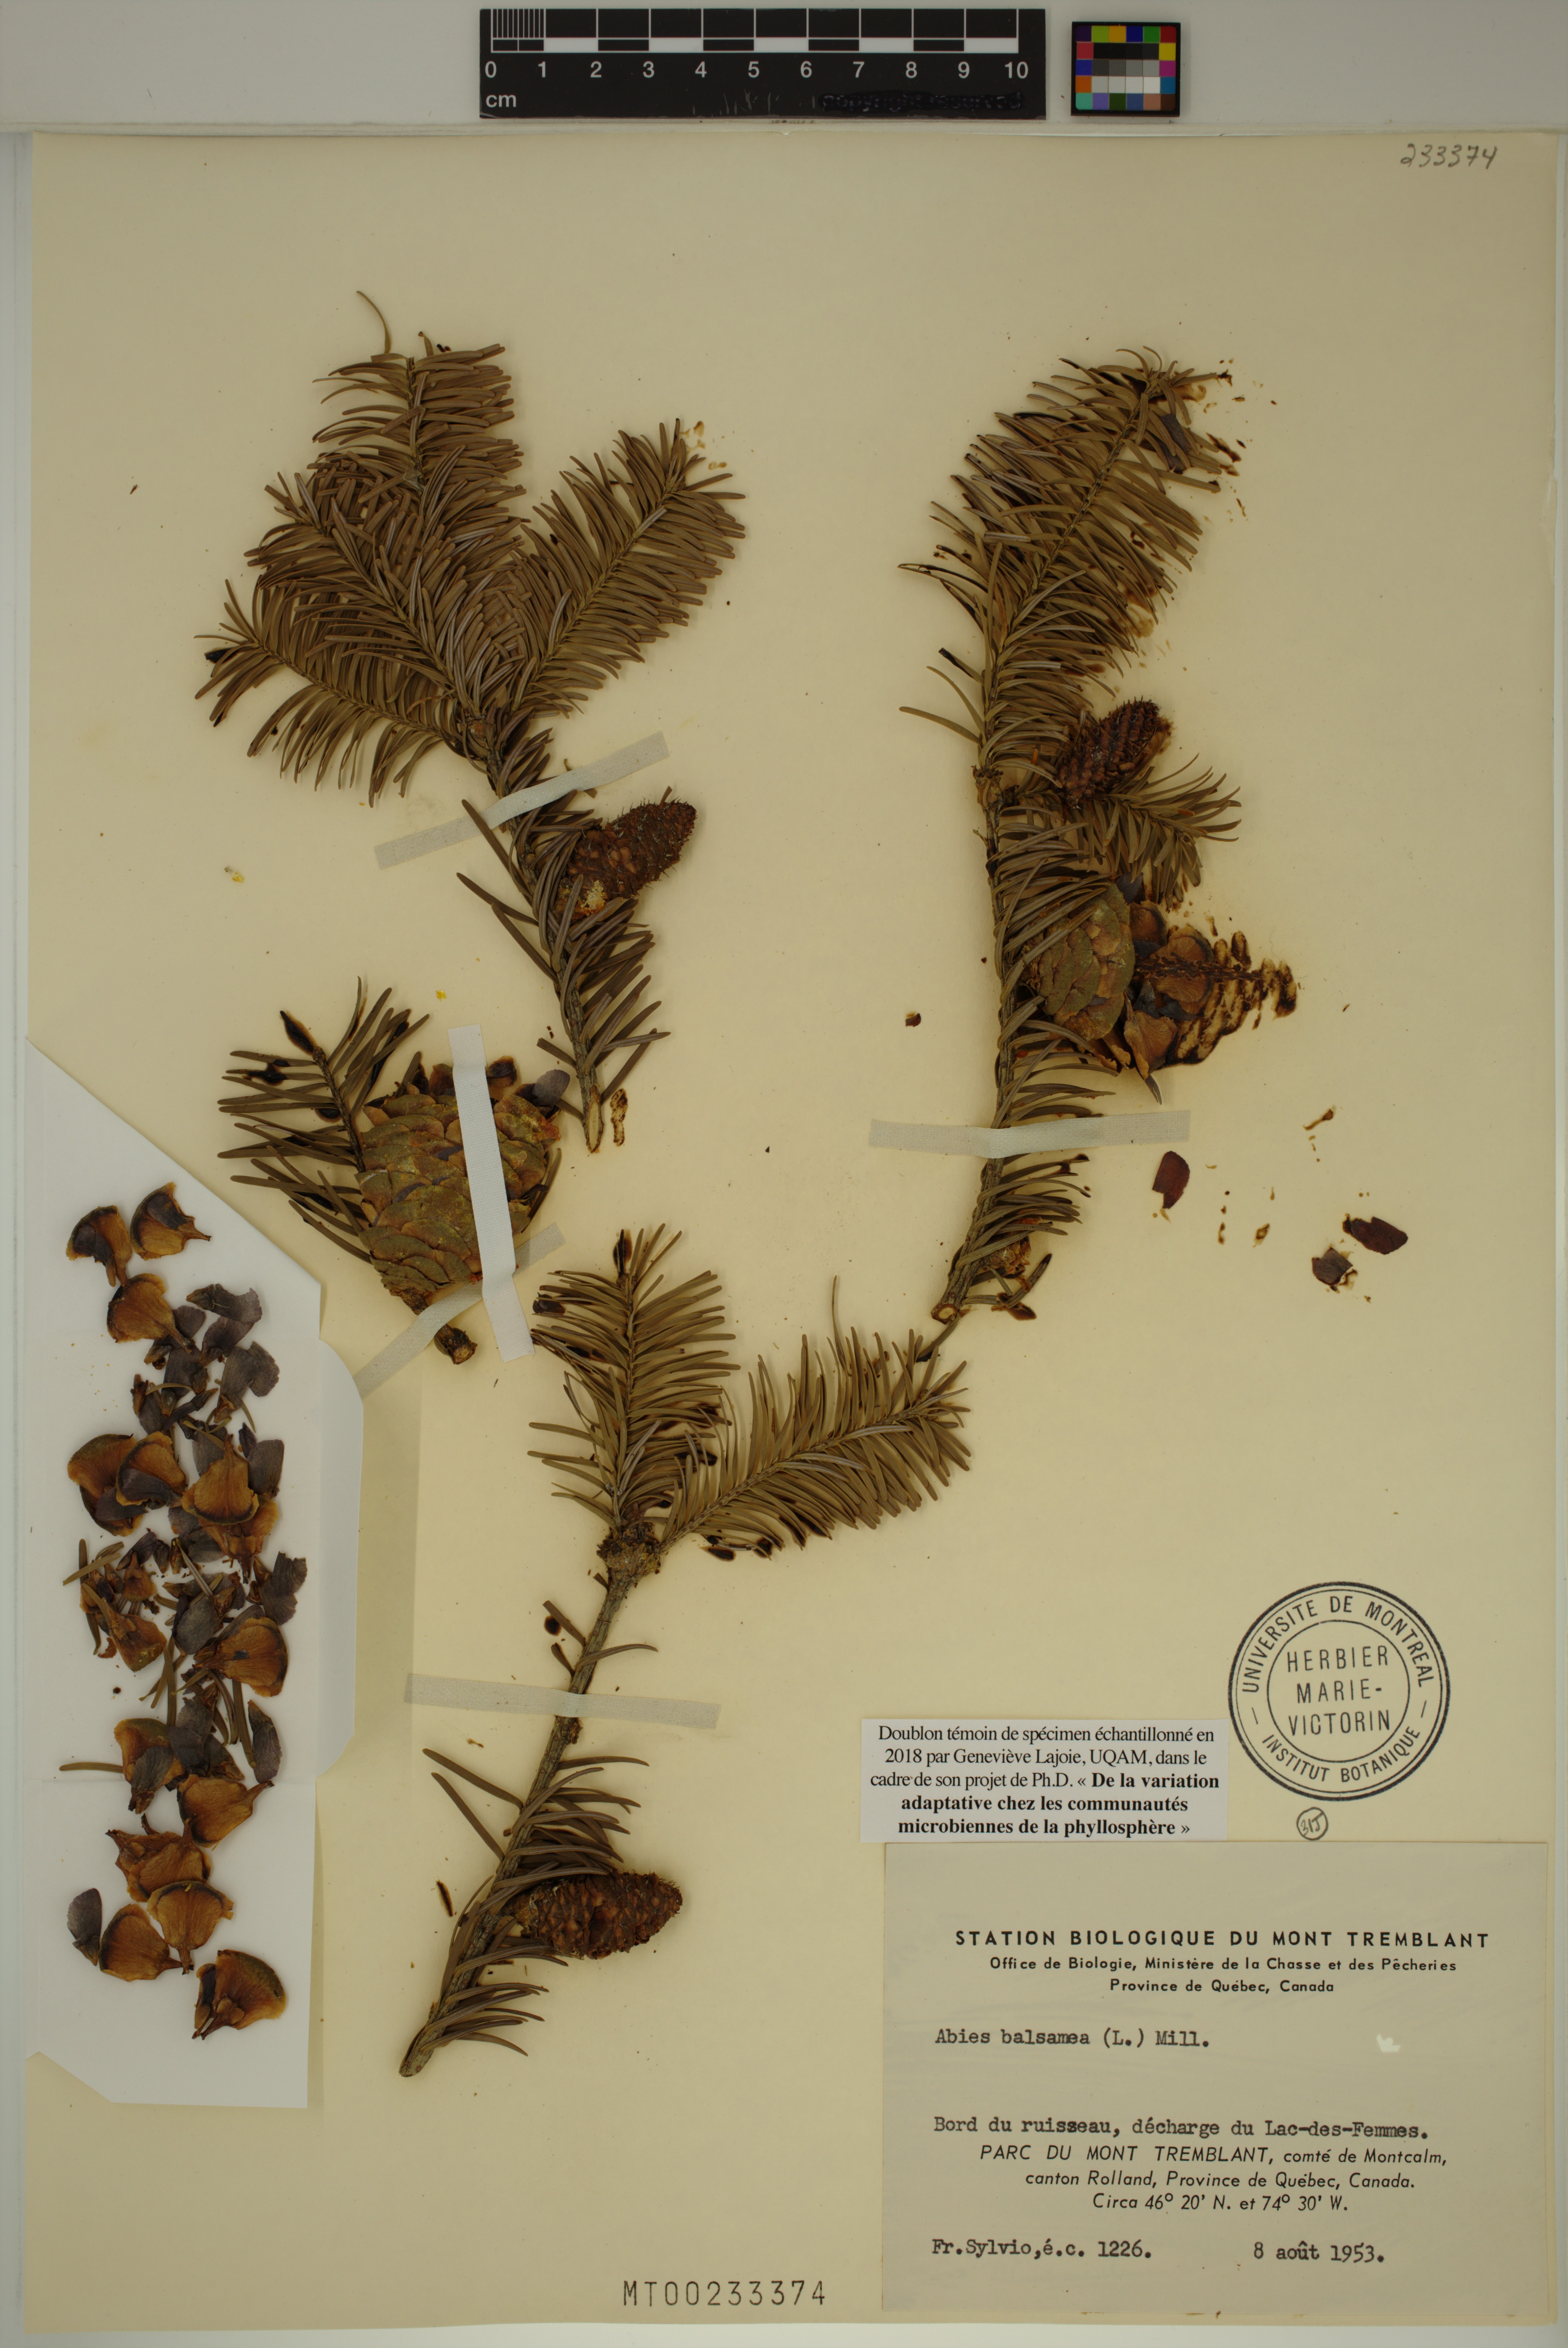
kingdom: Plantae
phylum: Tracheophyta
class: Pinopsida
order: Pinales
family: Pinaceae
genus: Abies
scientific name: Abies balsamea
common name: Balsam fir
